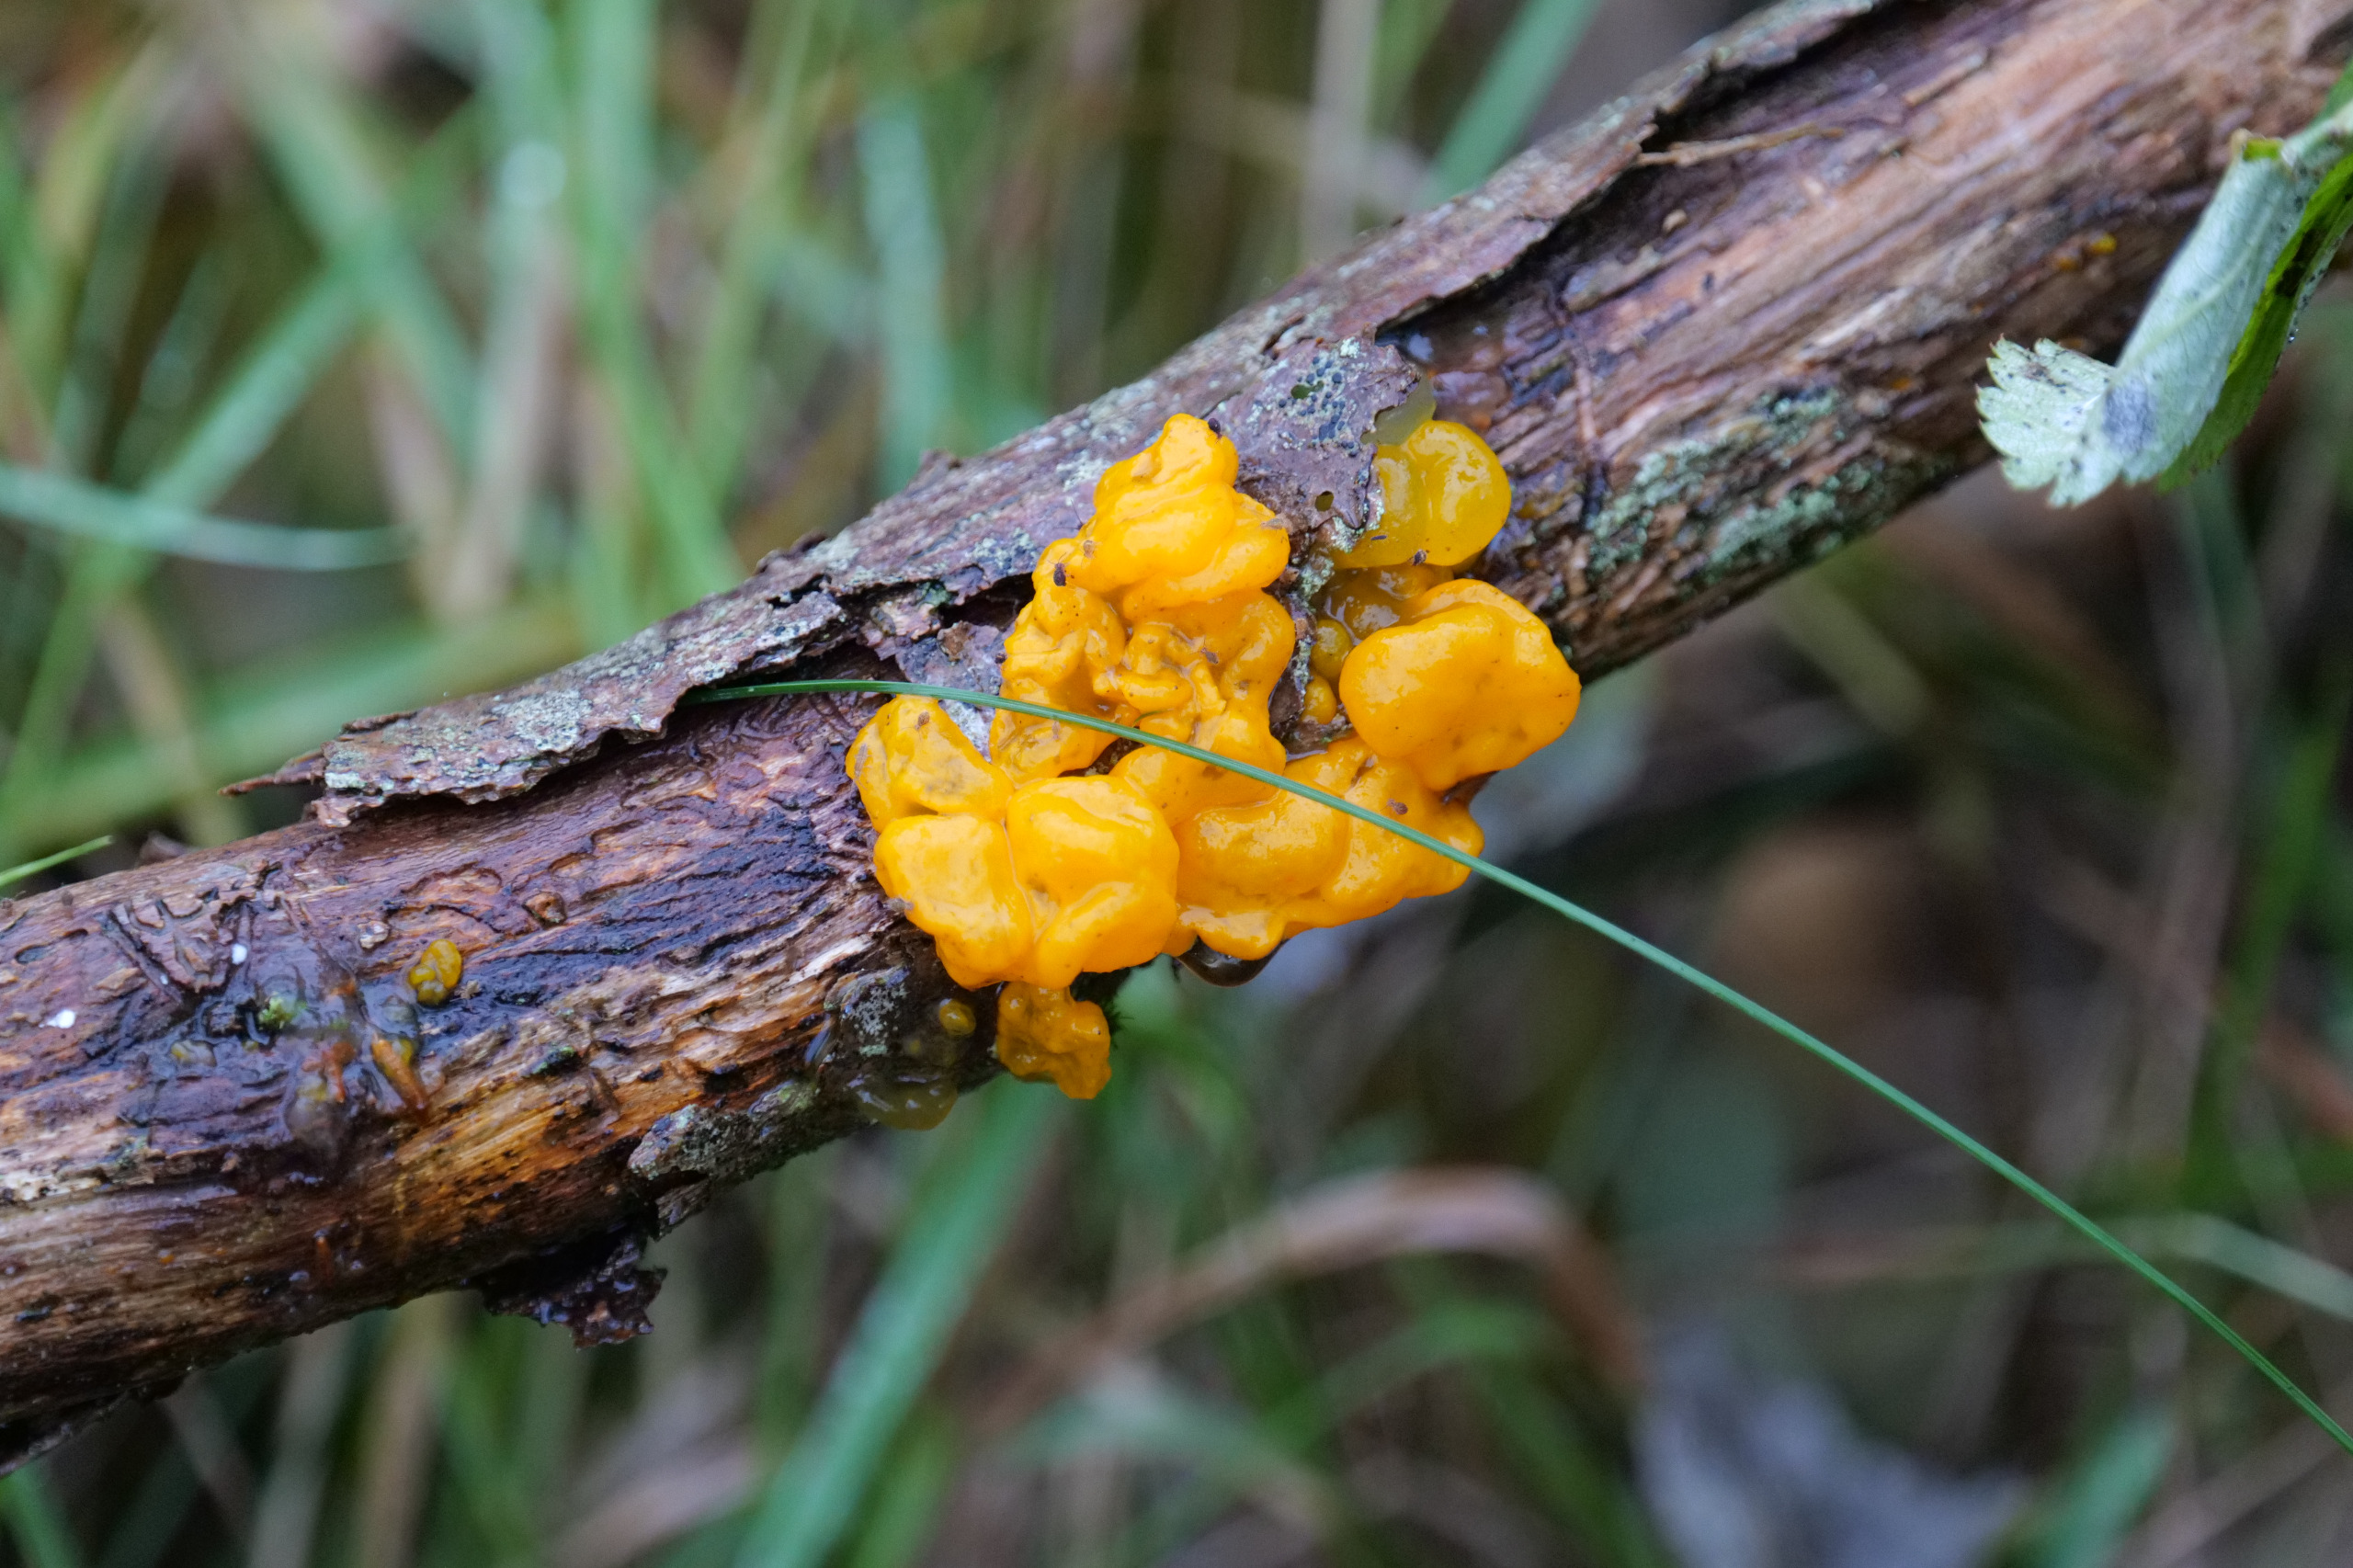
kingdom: Fungi
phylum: Basidiomycota
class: Tremellomycetes
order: Tremellales
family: Tremellaceae
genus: Tremella
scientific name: Tremella mesenterica
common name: Gul bævresvamp
